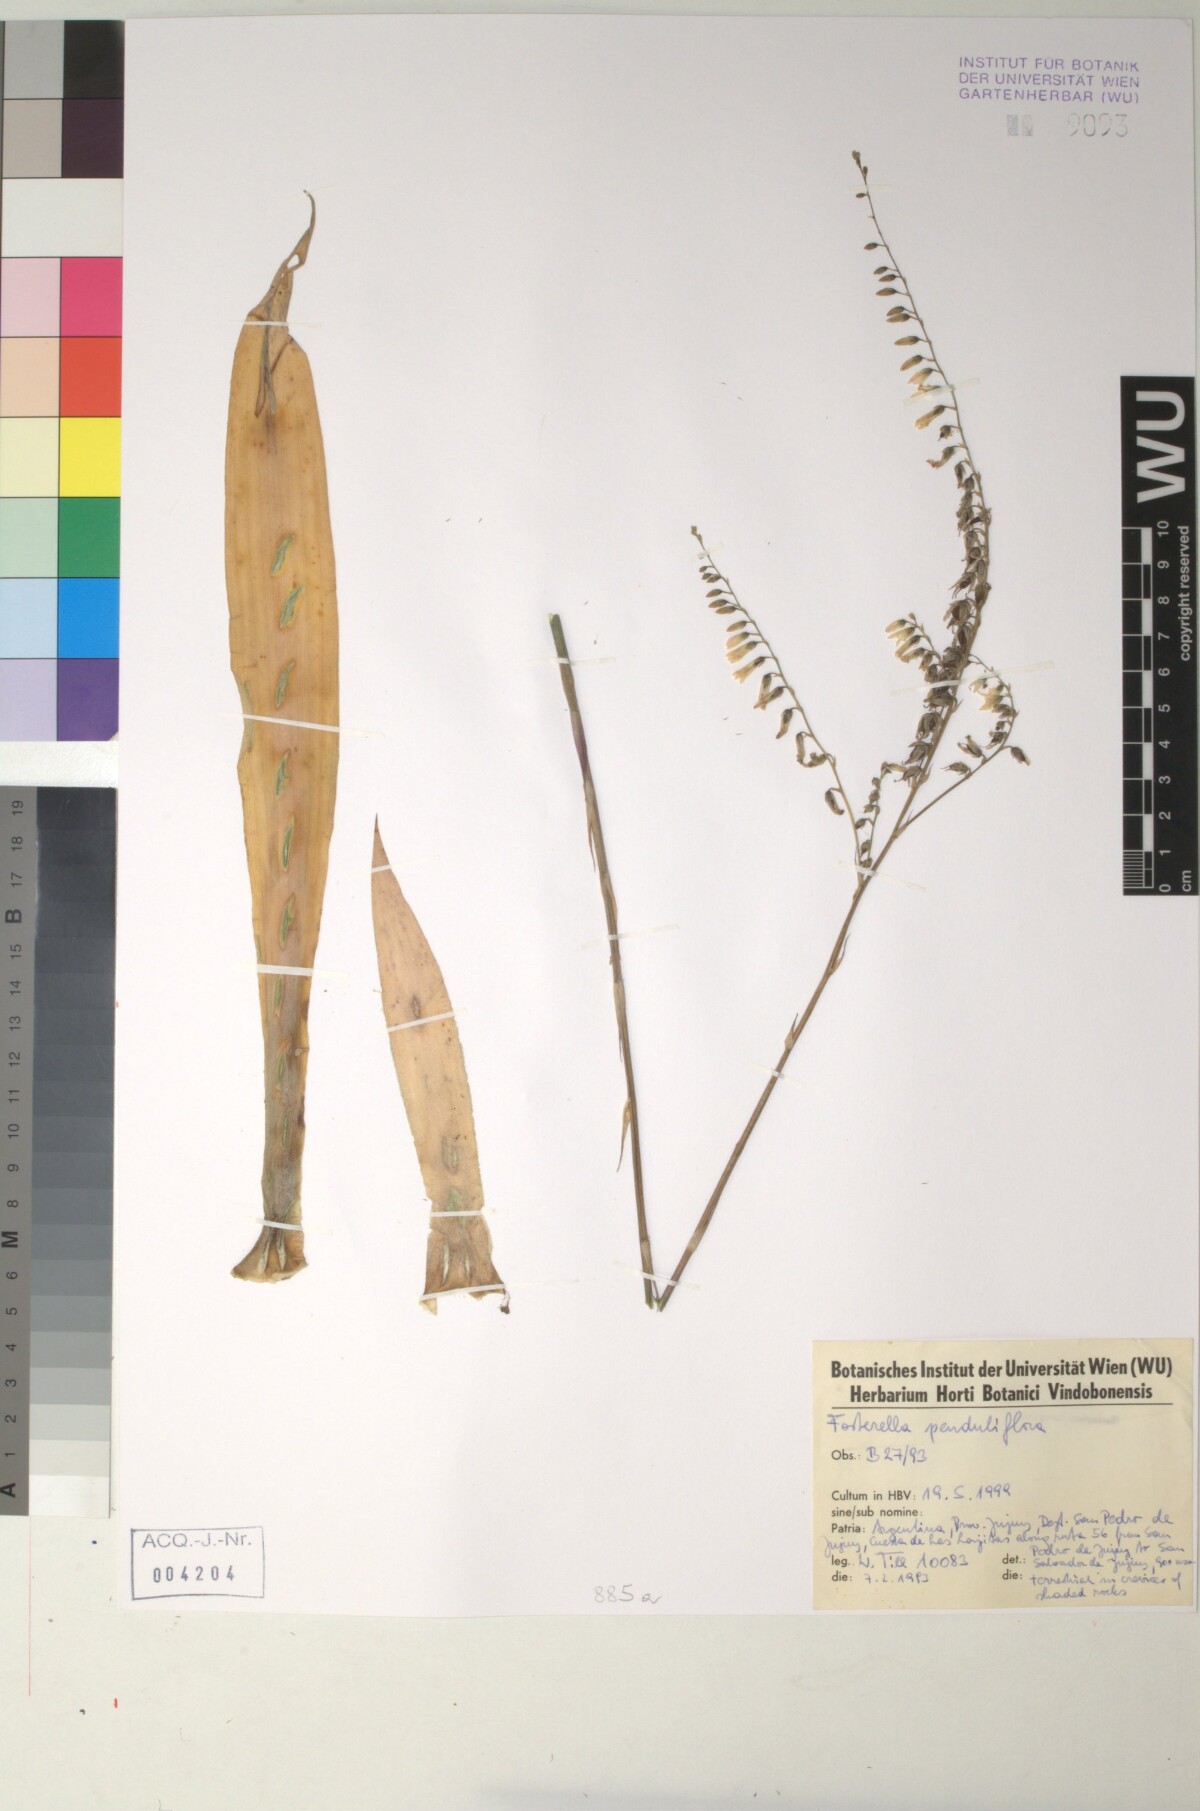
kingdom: Plantae
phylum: Tracheophyta
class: Liliopsida
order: Poales
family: Bromeliaceae
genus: Fosterella
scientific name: Fosterella penduliflora
